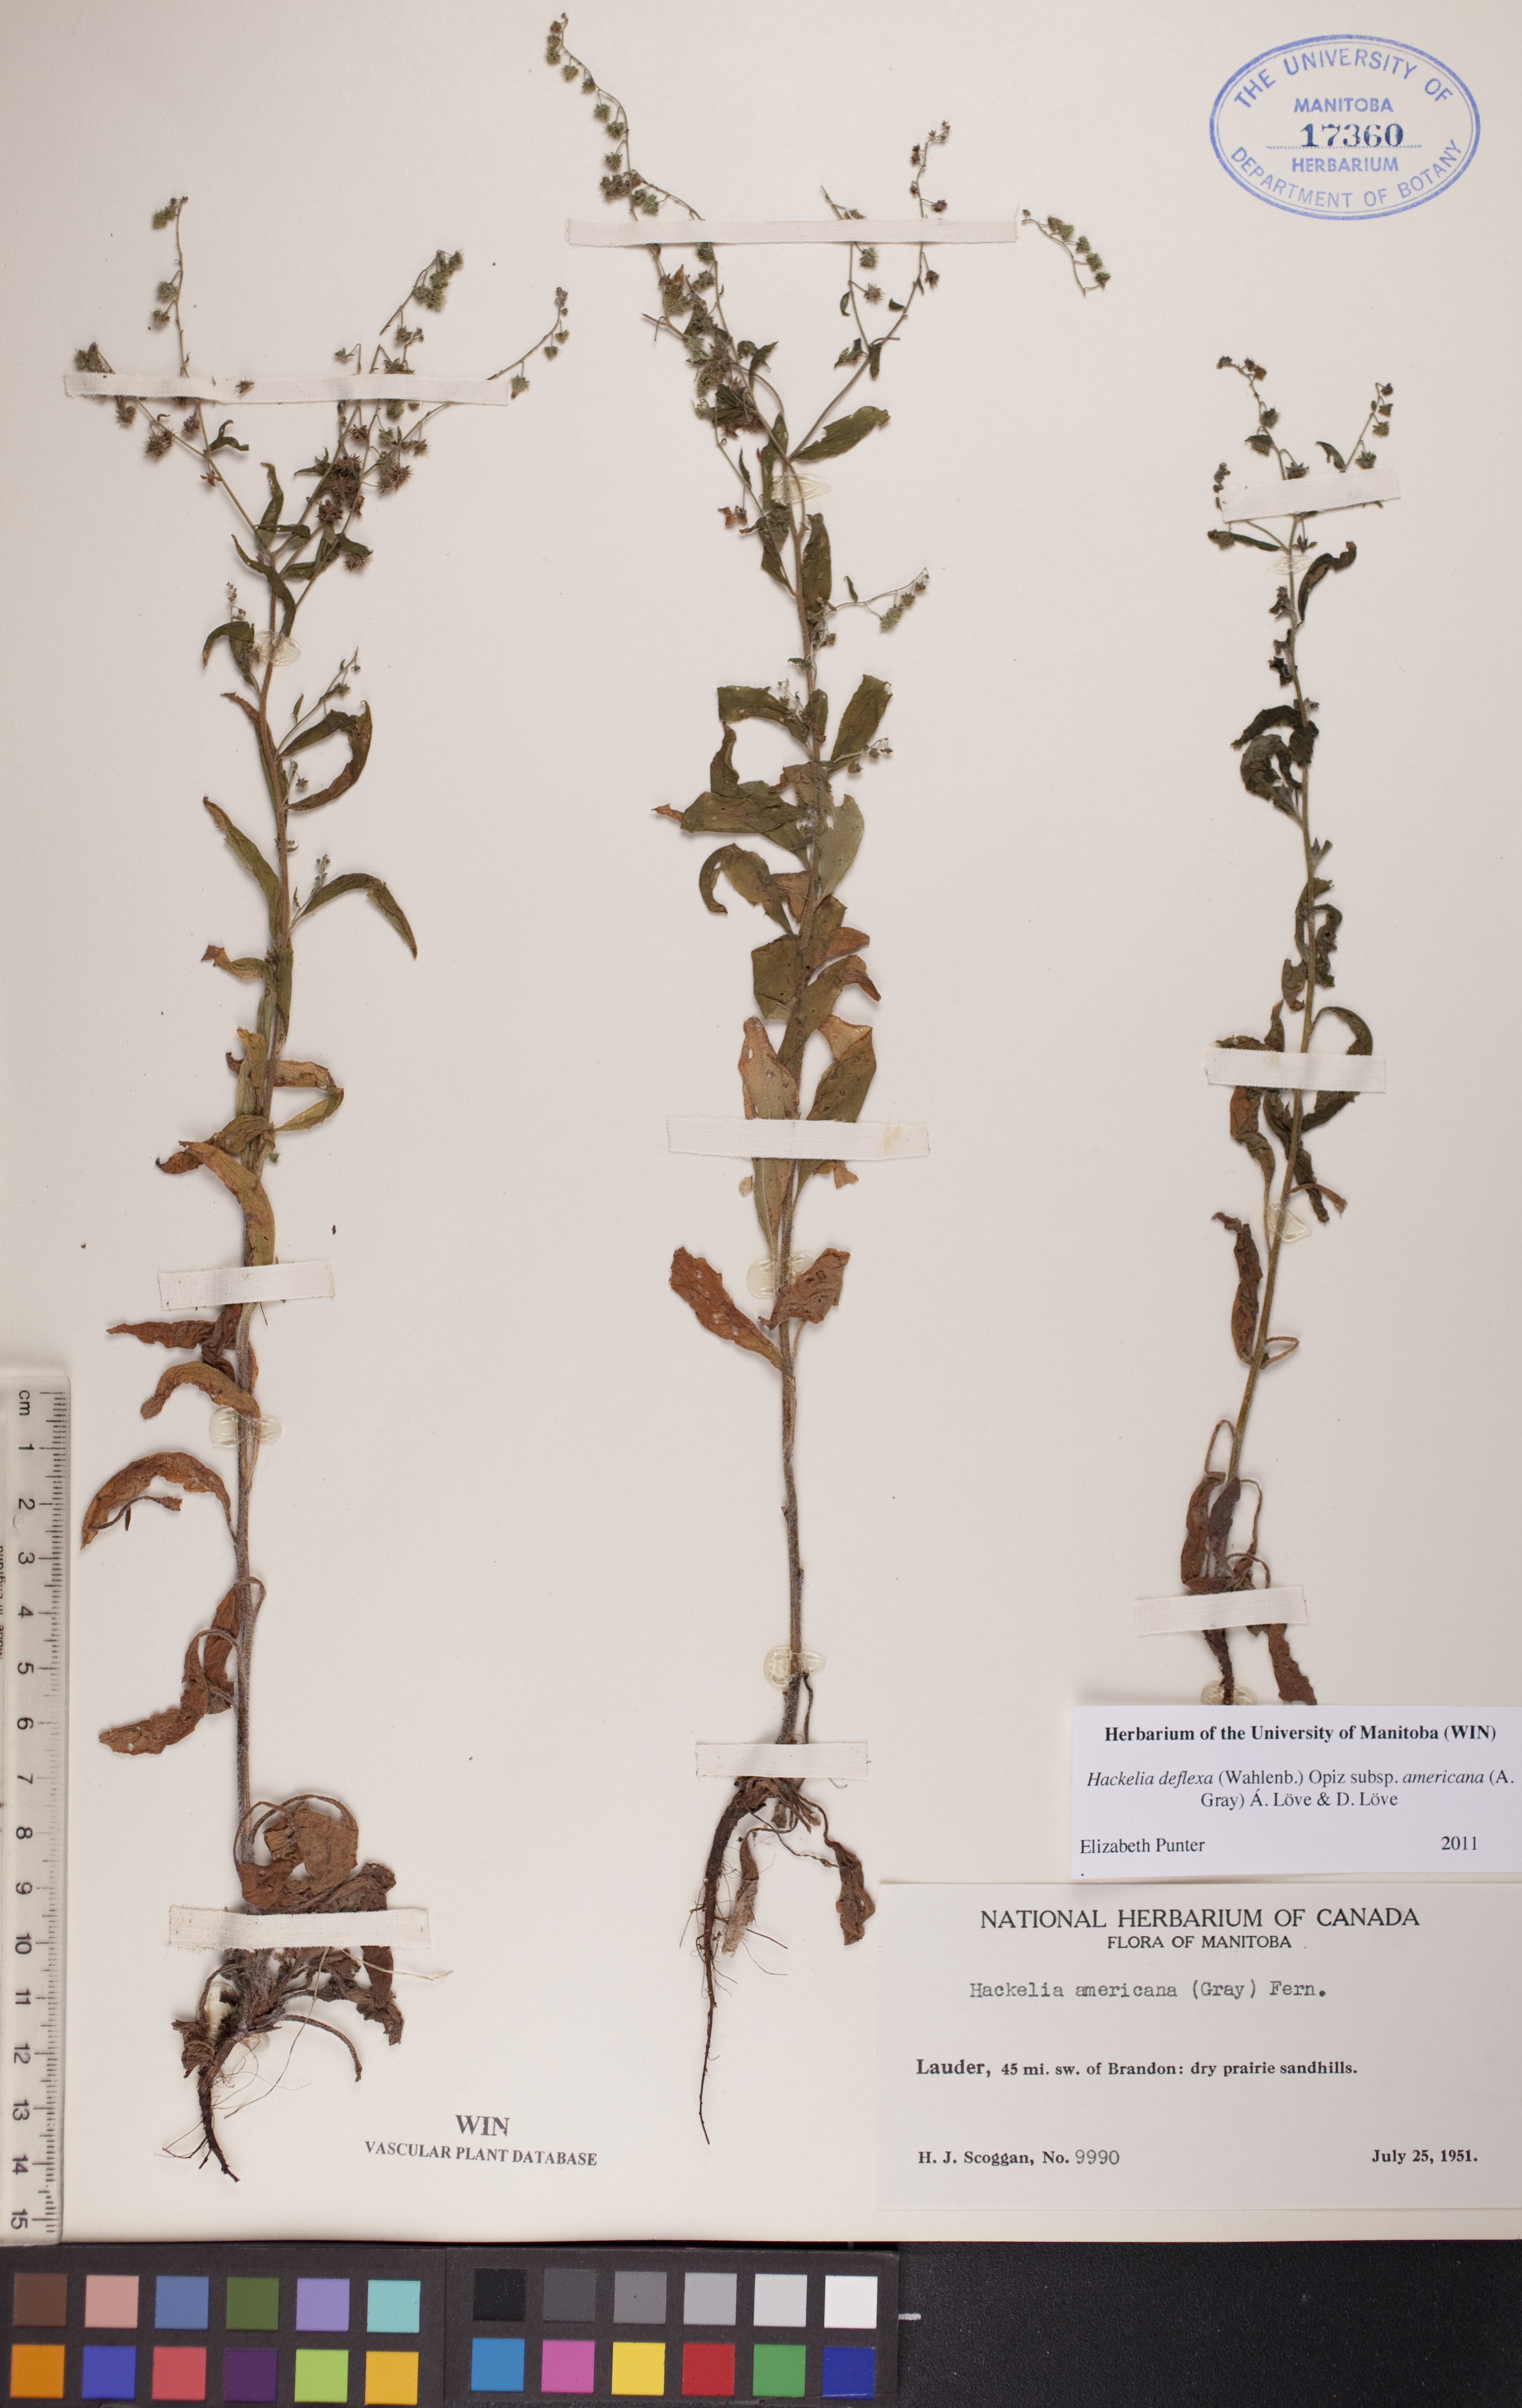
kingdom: Plantae
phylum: Tracheophyta
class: Magnoliopsida
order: Boraginales
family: Boraginaceae
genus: Hackelia
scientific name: Hackelia deflexa
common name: Nodding stickseed
